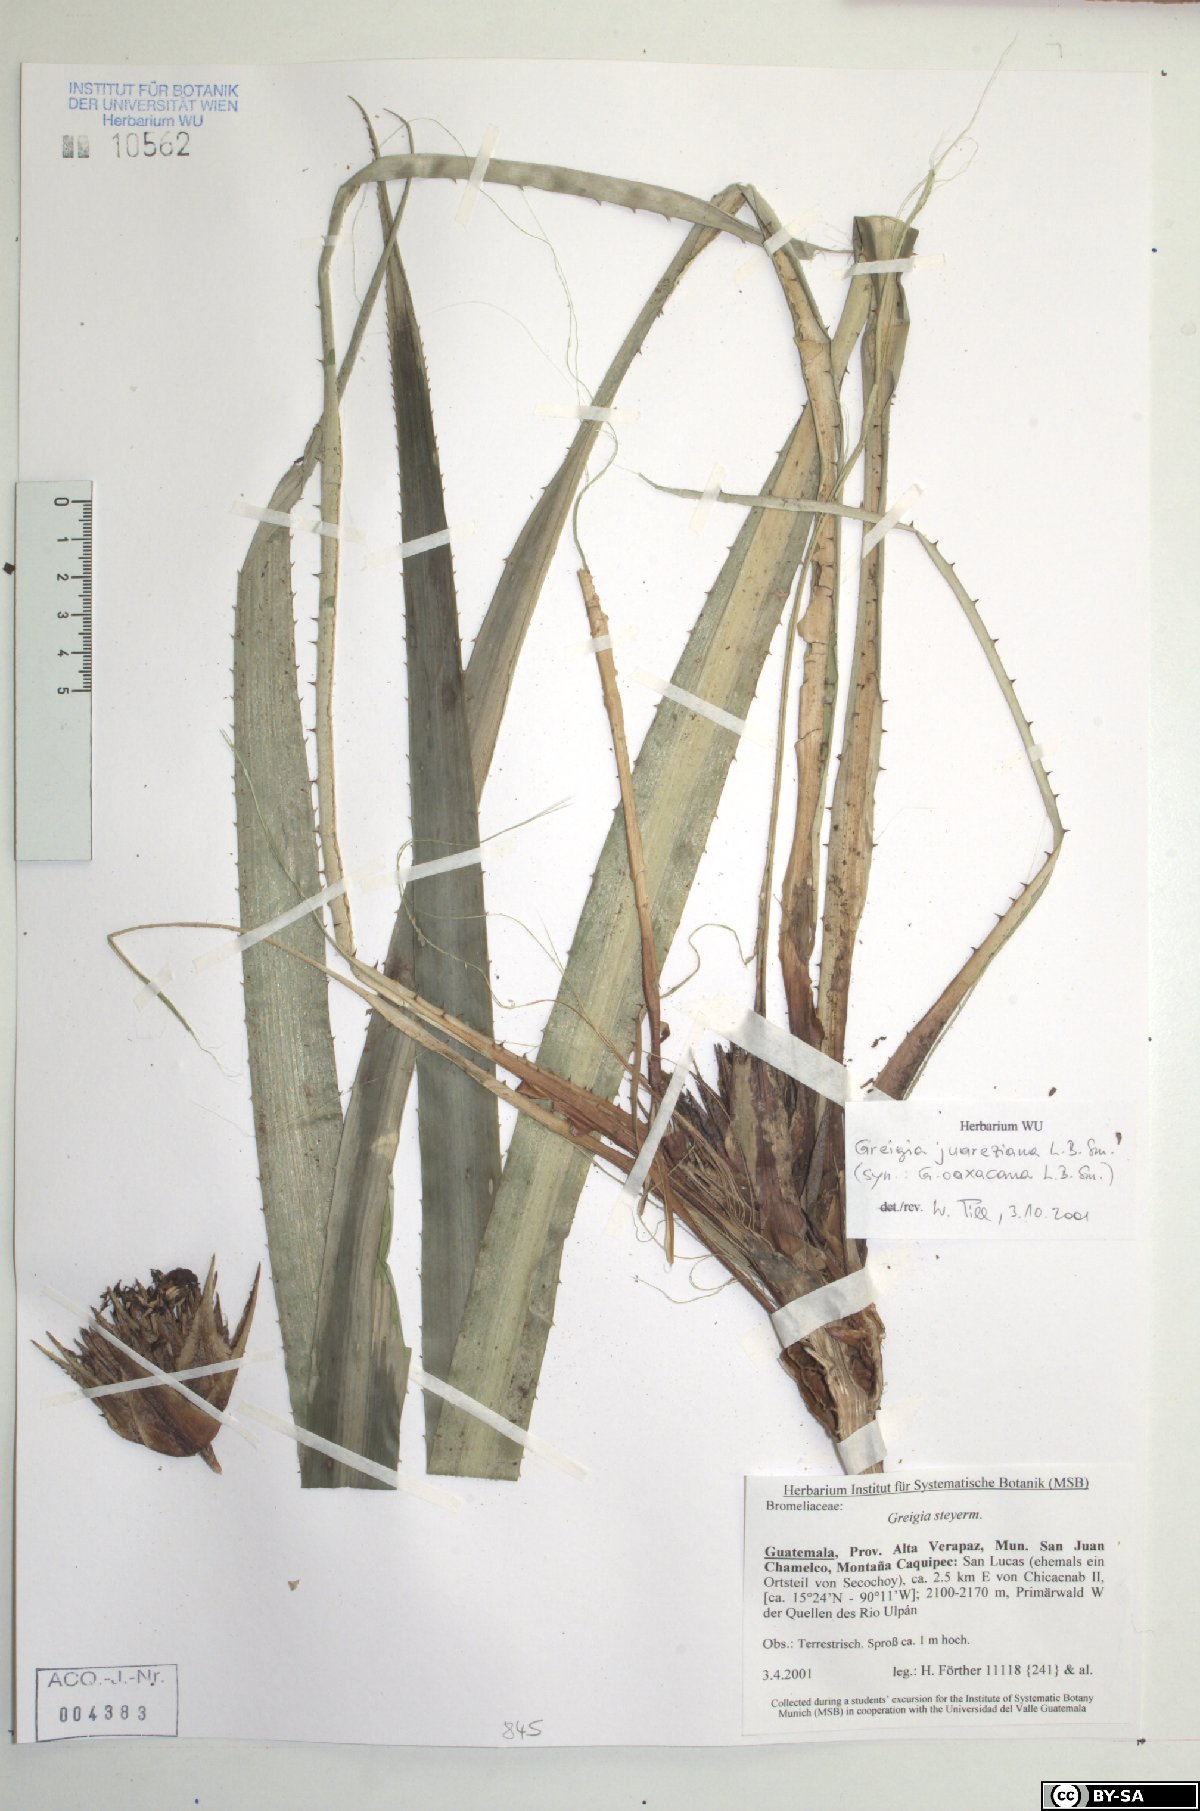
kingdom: Plantae
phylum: Tracheophyta
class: Liliopsida
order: Poales
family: Bromeliaceae
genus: Greigia
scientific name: Greigia steyermarkii
